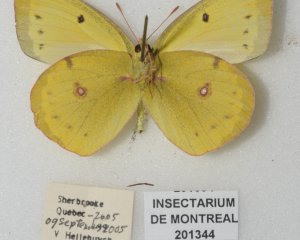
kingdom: Animalia
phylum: Arthropoda
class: Insecta
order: Lepidoptera
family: Pieridae
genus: Colias
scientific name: Colias philodice
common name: Clouded Sulphur
